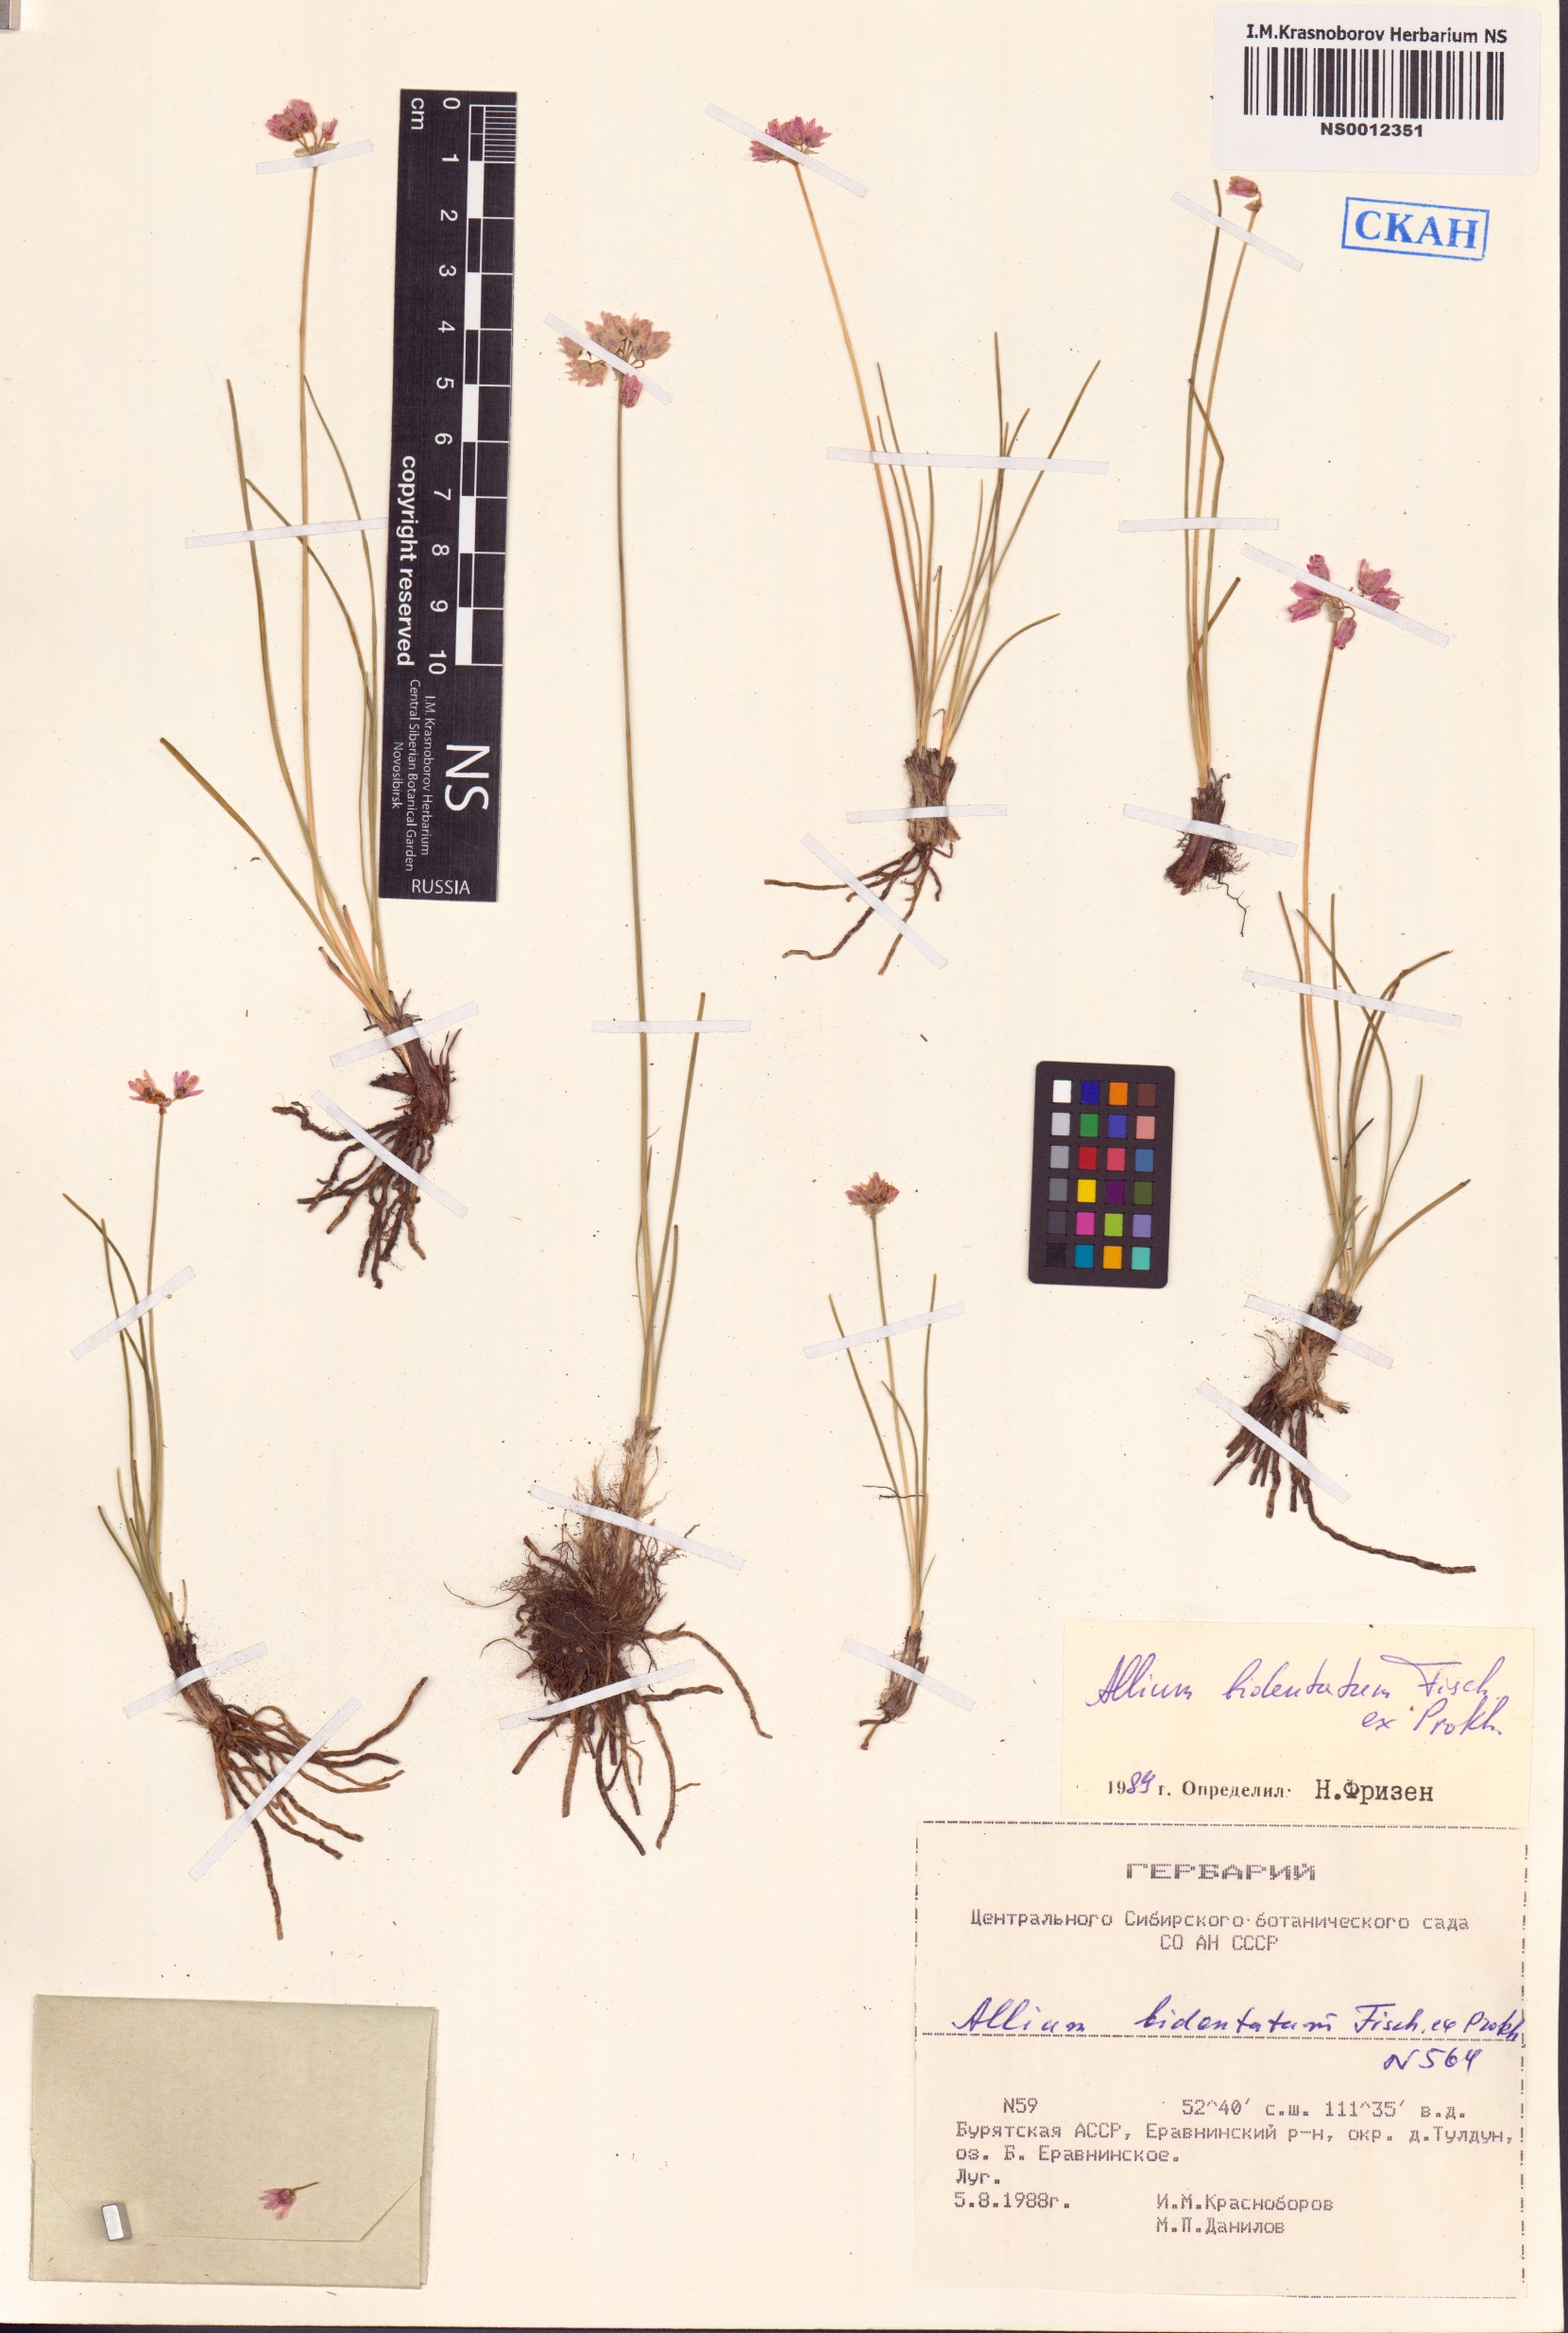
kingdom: Plantae
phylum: Tracheophyta
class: Liliopsida
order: Asparagales
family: Amaryllidaceae
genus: Allium
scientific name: Allium bidentatum
